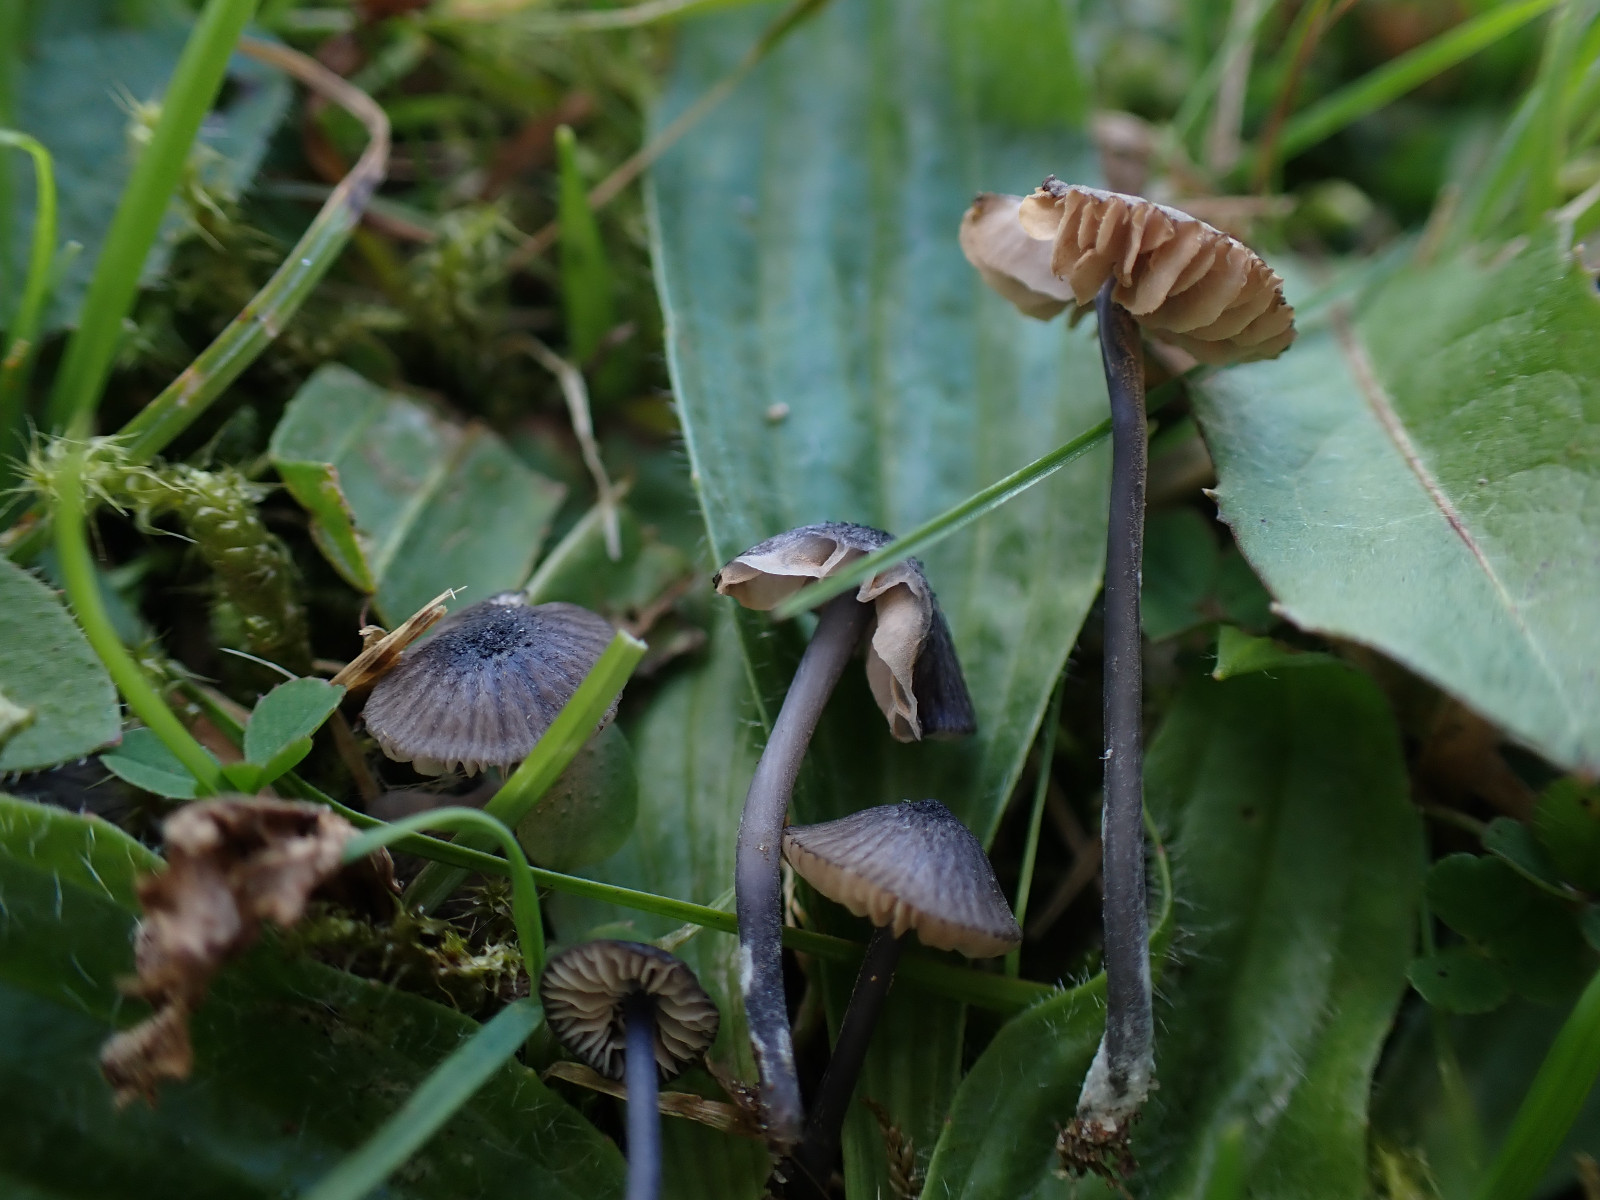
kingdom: Fungi
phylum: Basidiomycota
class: Agaricomycetes
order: Agaricales
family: Entolomataceae
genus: Entoloma
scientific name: Entoloma cyanulum
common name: violblå rødblad
